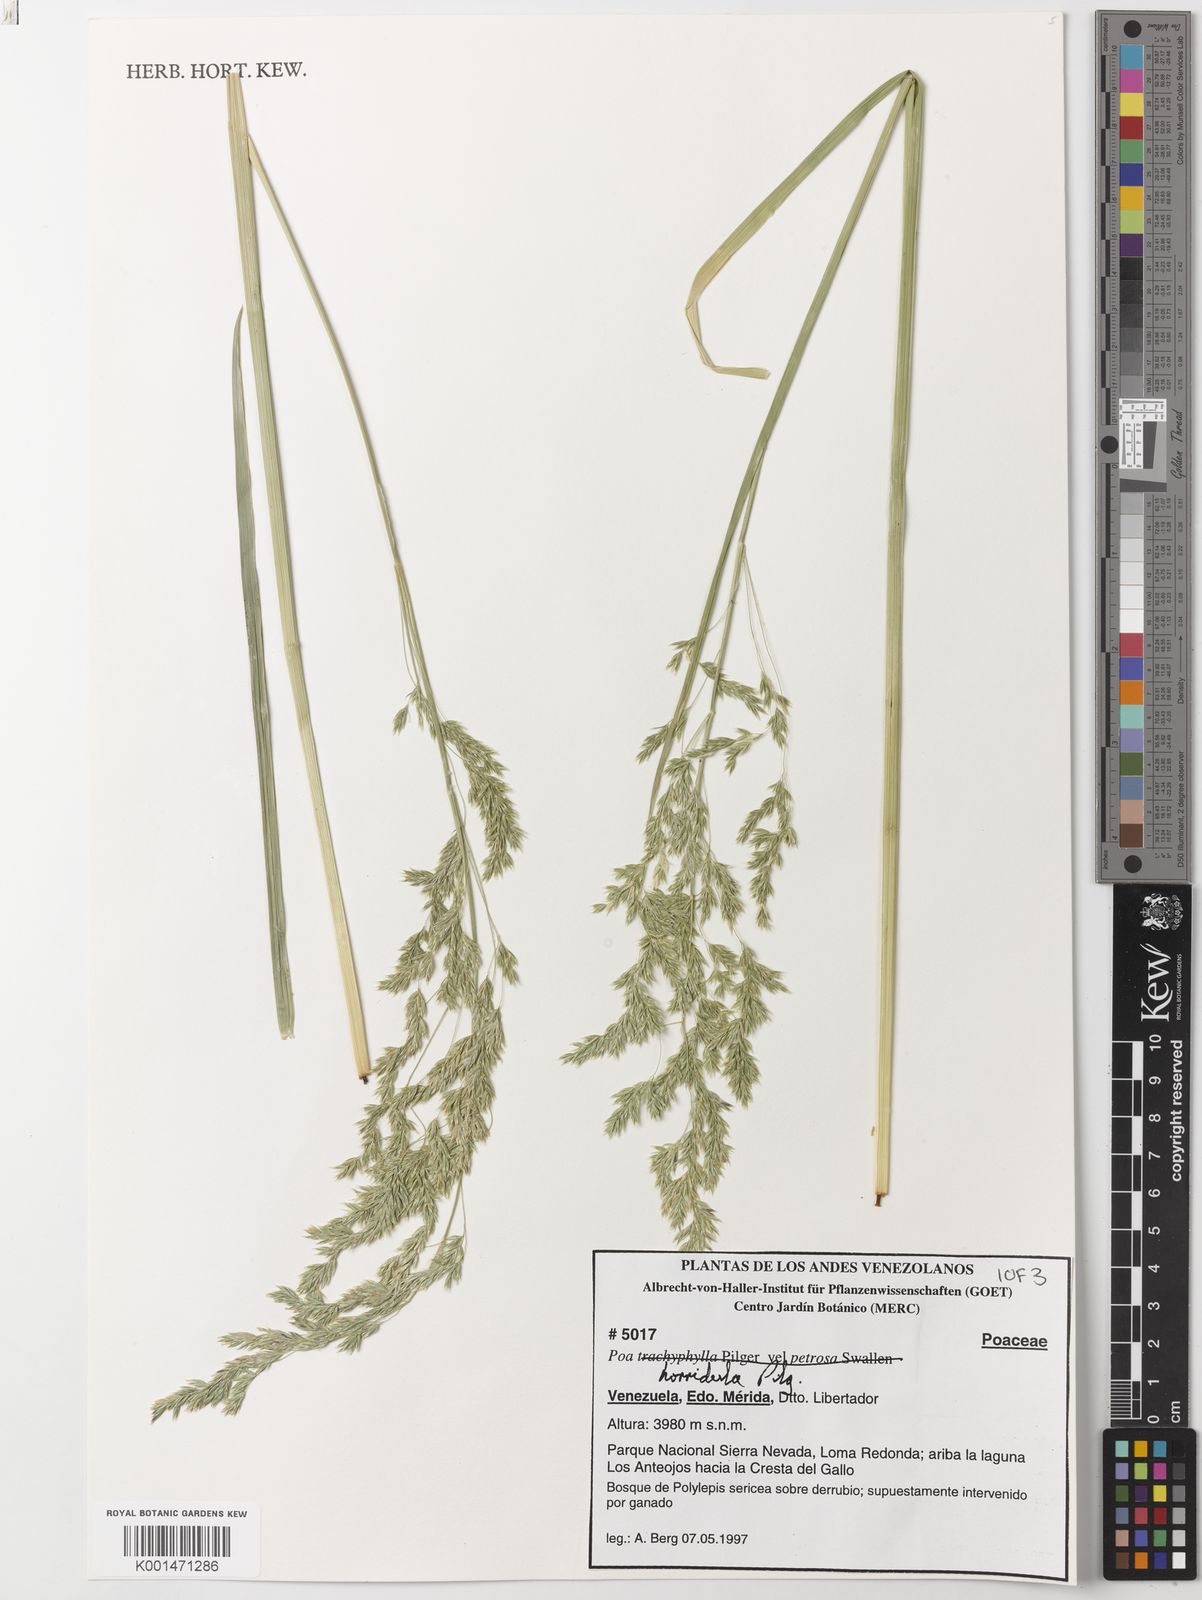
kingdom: Plantae
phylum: Tracheophyta
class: Liliopsida
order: Poales
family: Poaceae
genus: Poa
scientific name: Poa horridula
